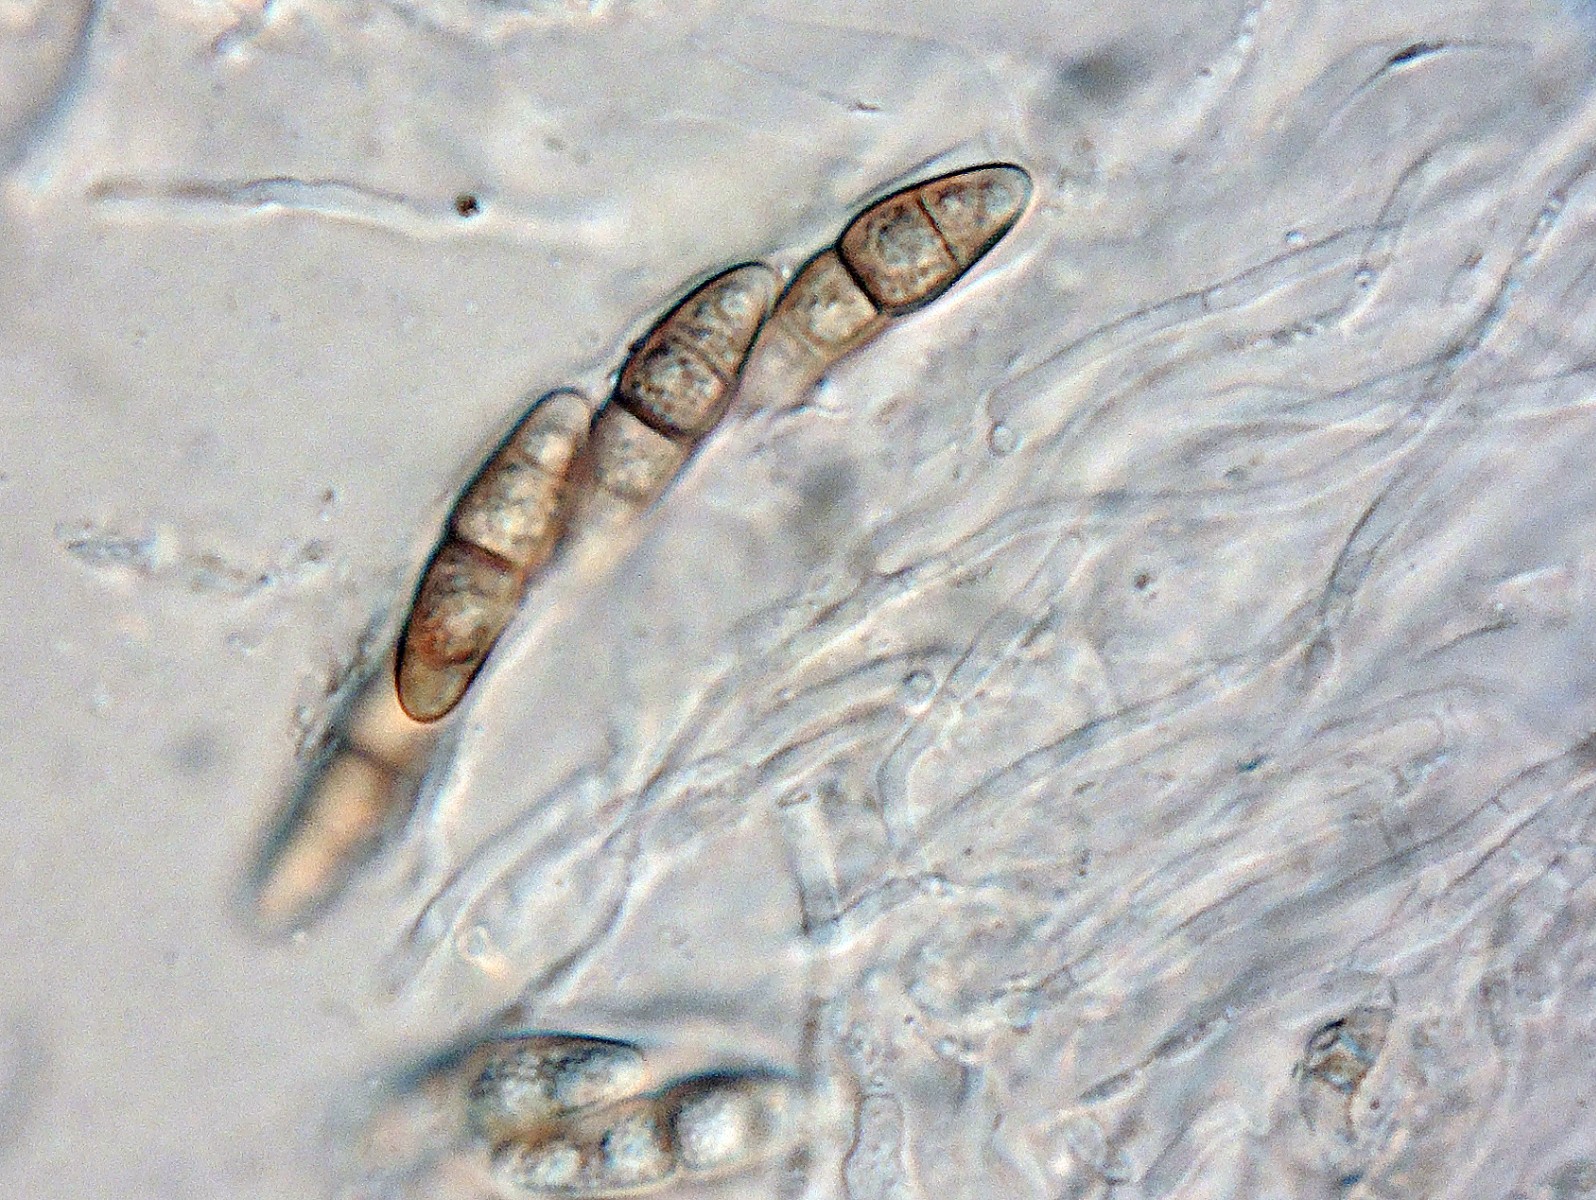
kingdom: Plantae
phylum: Bryophyta
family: Dothideomycetes
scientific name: Dothideomycetes
